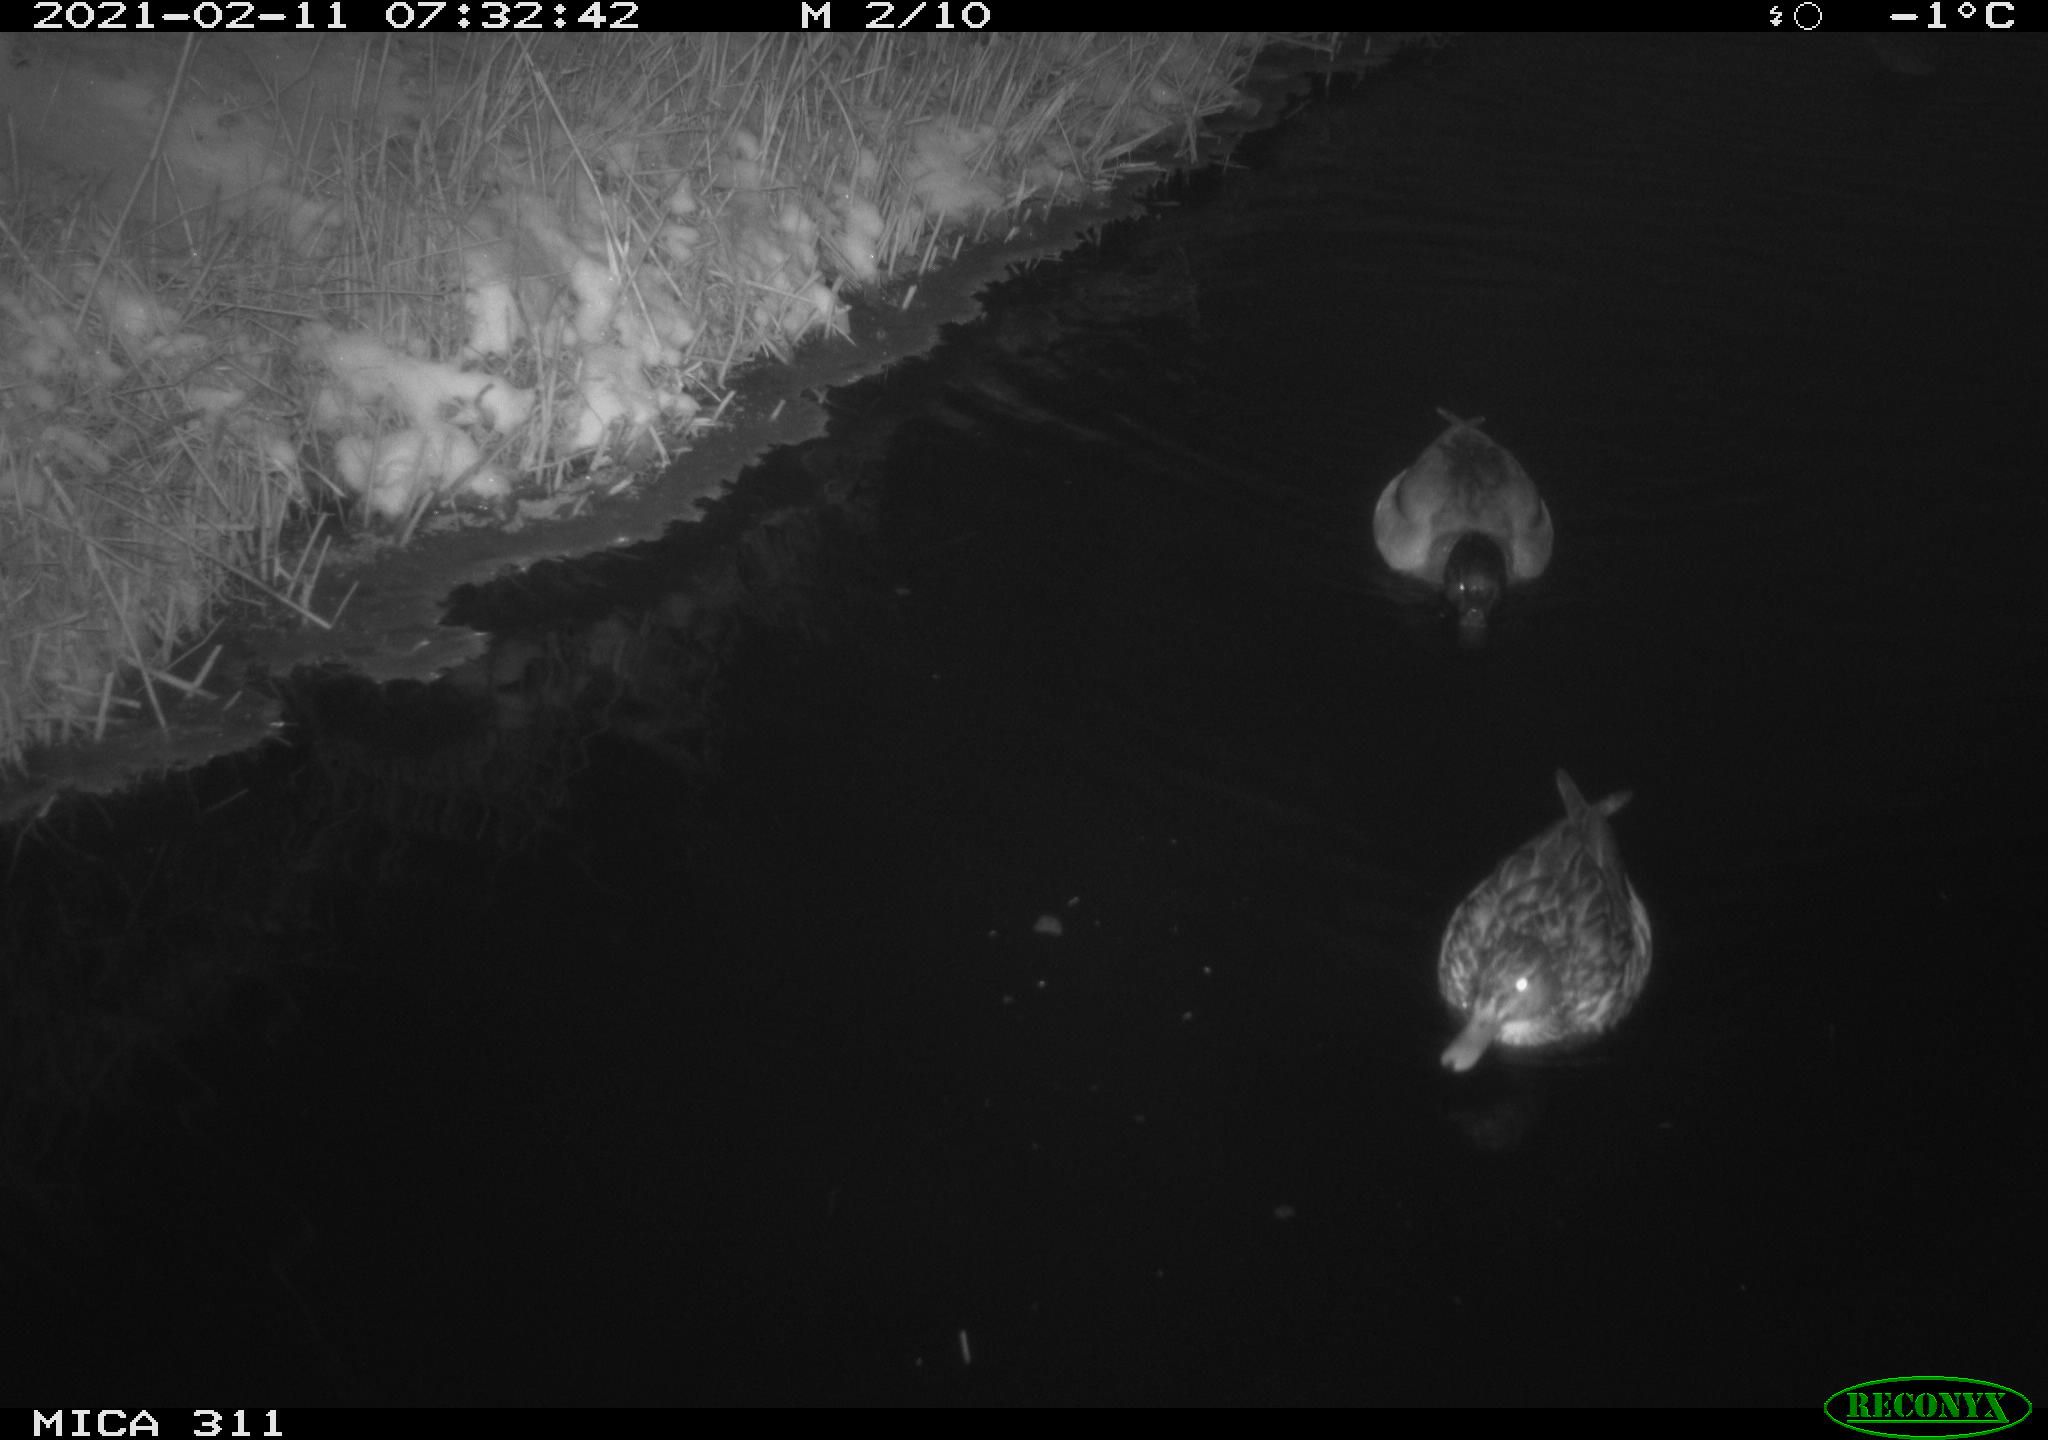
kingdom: Animalia
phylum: Chordata
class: Aves
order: Anseriformes
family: Anatidae
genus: Anas
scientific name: Anas
